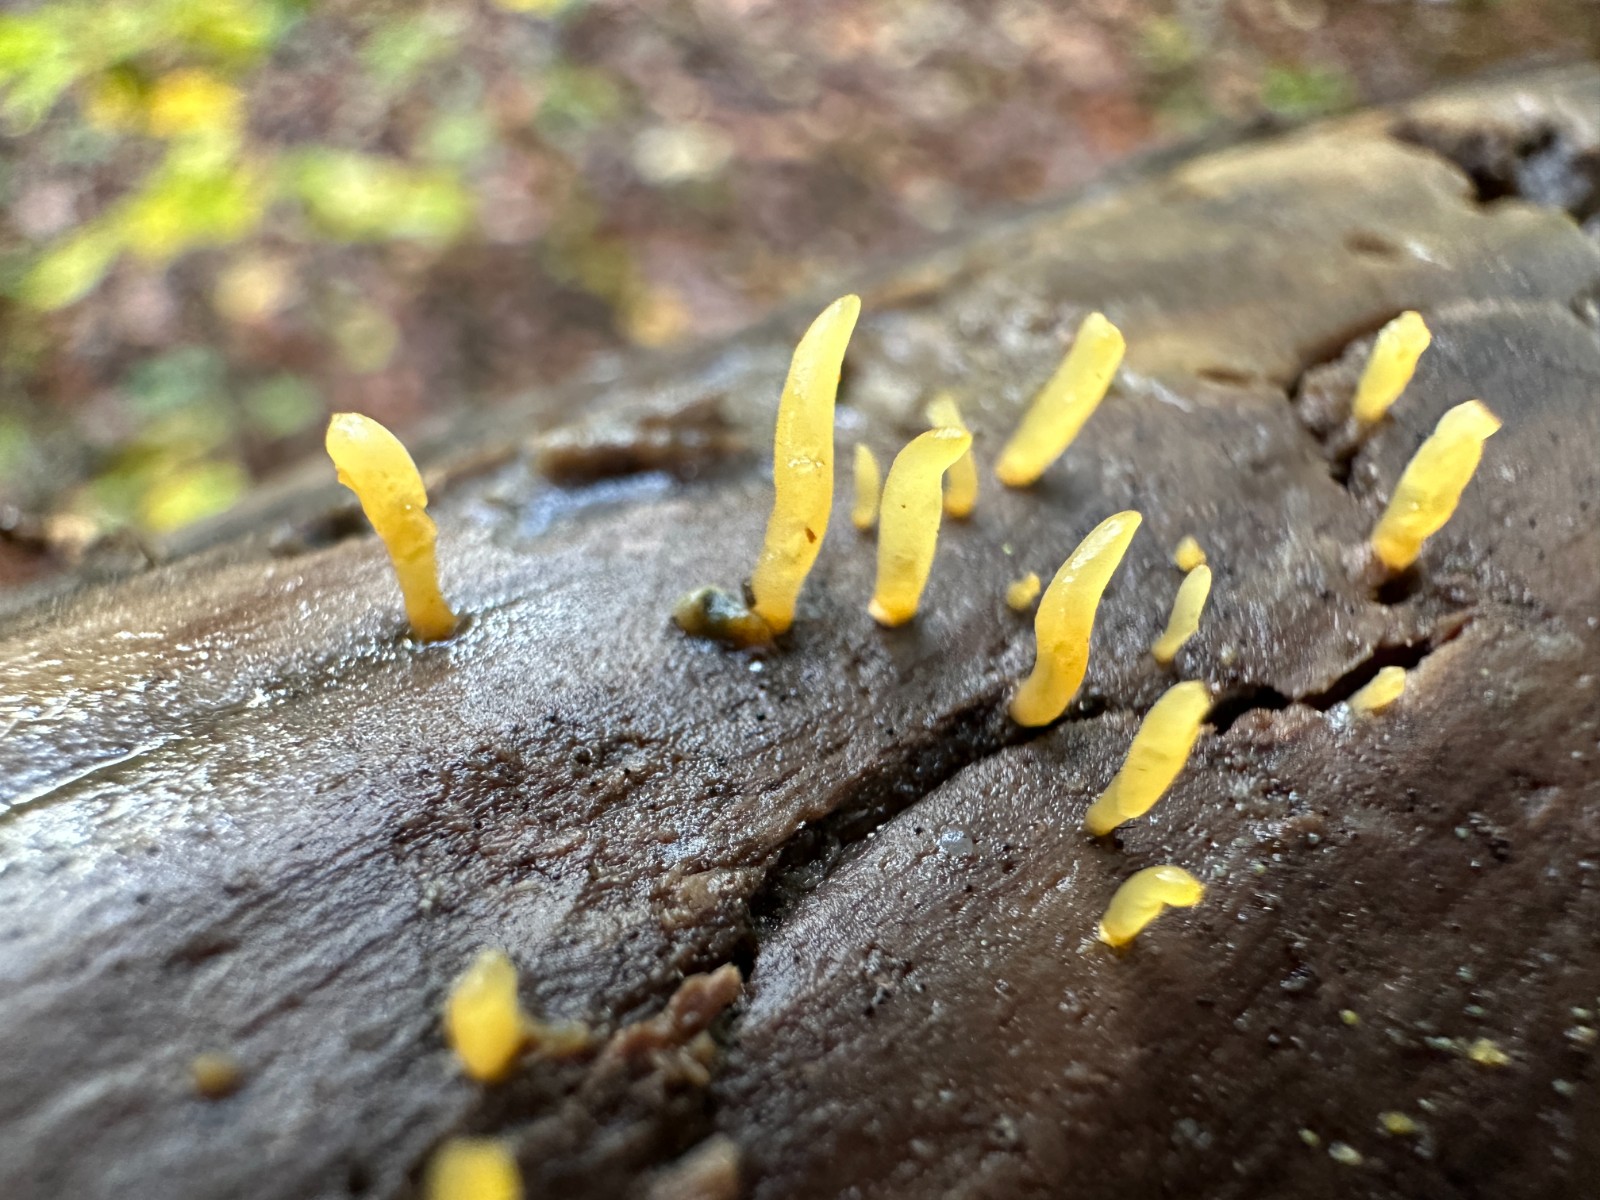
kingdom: Fungi
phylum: Basidiomycota
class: Dacrymycetes
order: Dacrymycetales
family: Dacrymycetaceae
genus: Calocera
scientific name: Calocera cornea
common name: liden guldgaffel
